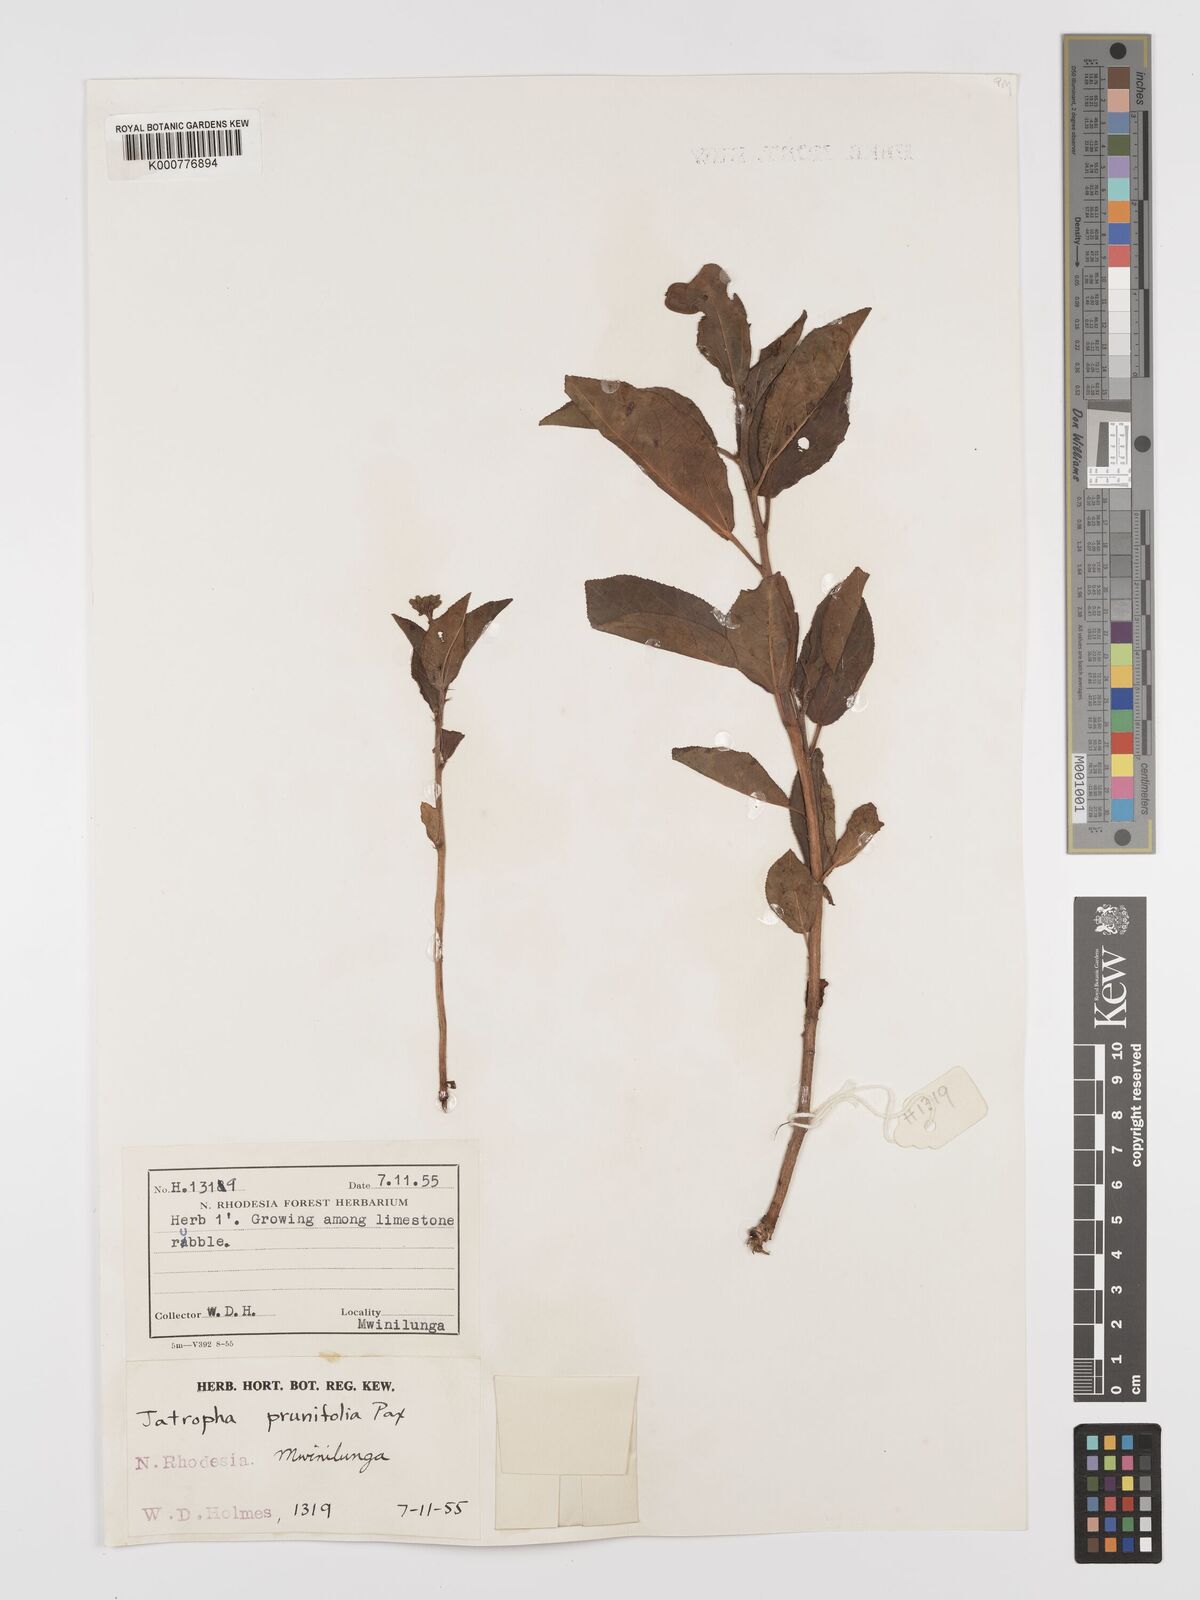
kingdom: Plantae
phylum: Tracheophyta
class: Magnoliopsida
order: Malpighiales
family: Euphorbiaceae
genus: Jatropha
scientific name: Jatropha
